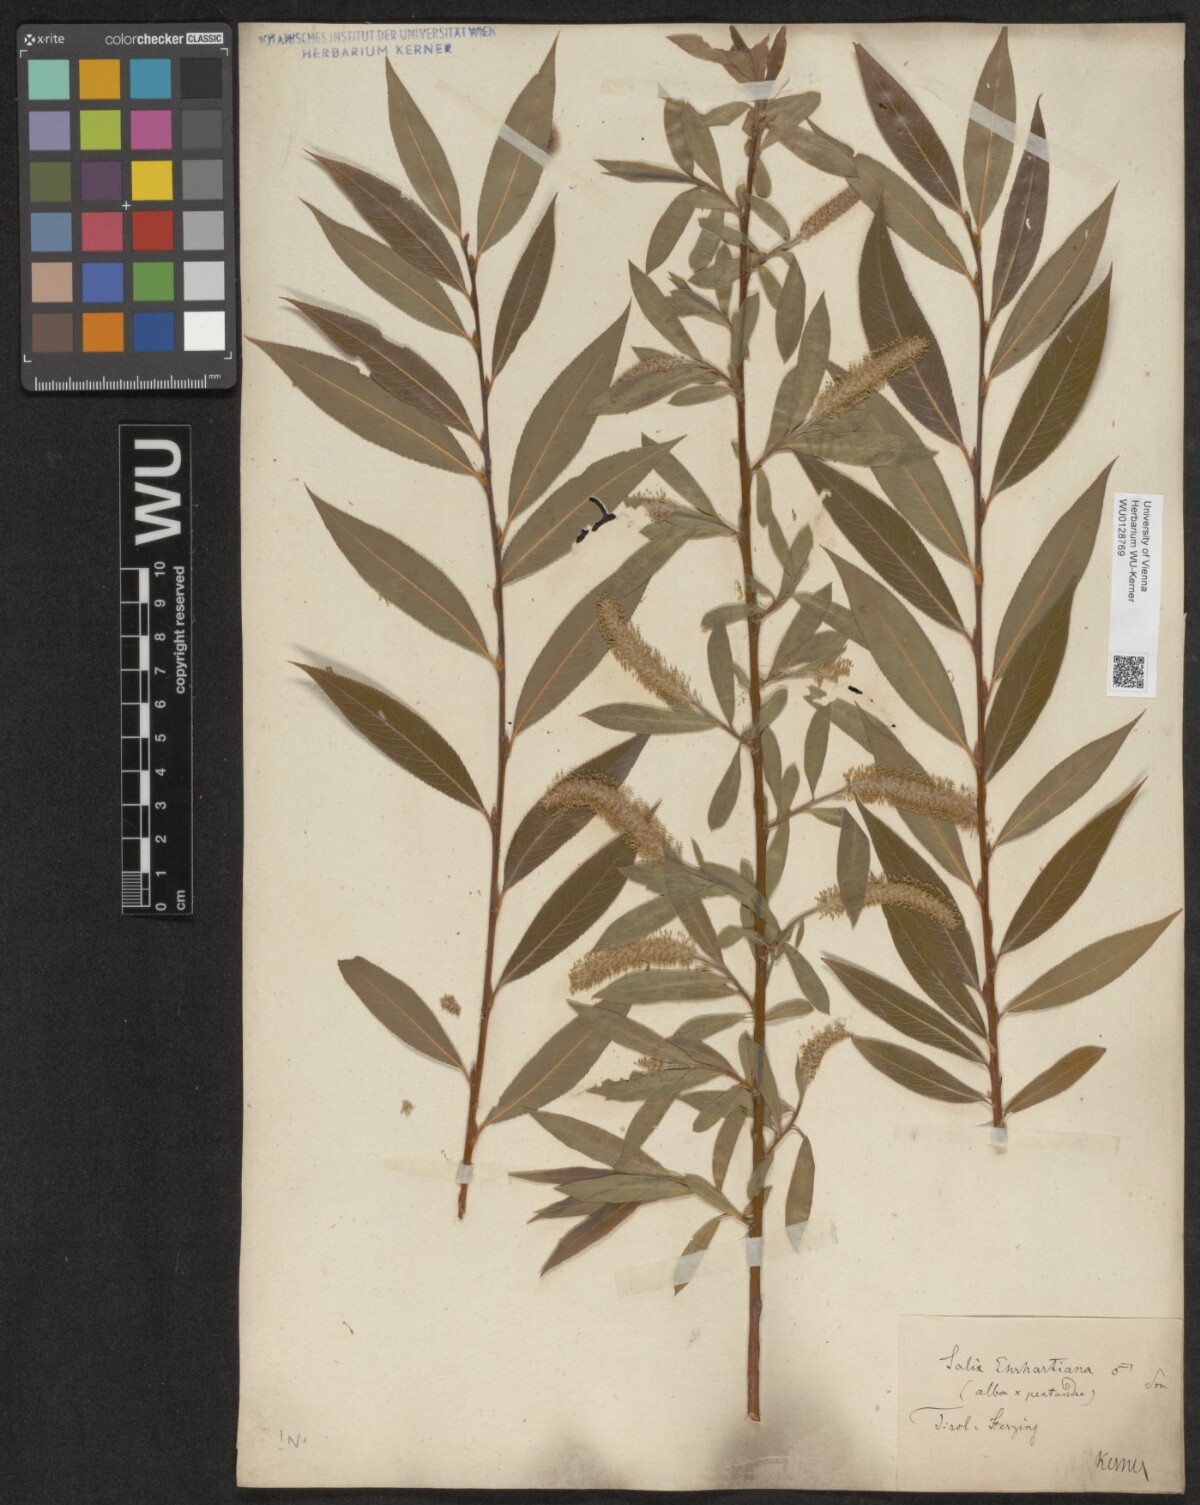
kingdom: Plantae
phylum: Tracheophyta
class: Magnoliopsida
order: Malpighiales
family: Salicaceae
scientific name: Salicaceae
